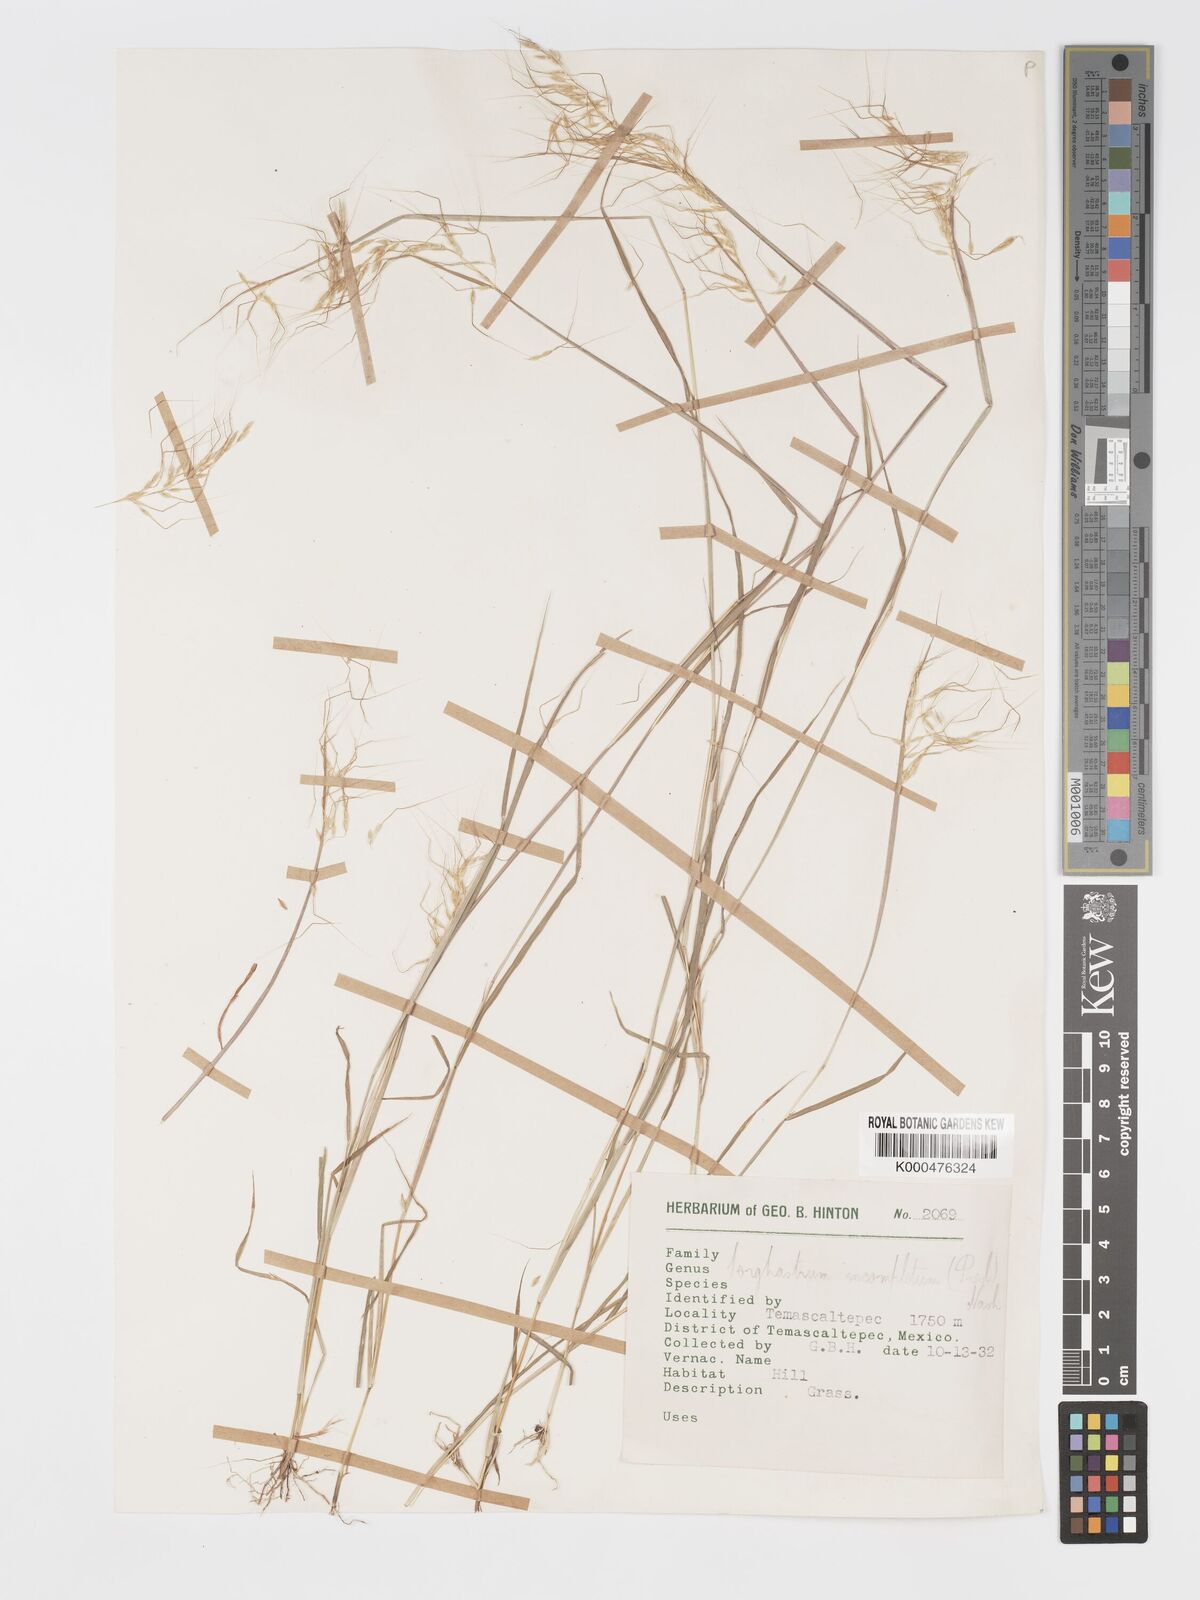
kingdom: Plantae
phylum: Tracheophyta
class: Liliopsida
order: Poales
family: Poaceae
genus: Sorghastrum
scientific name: Sorghastrum incompletum
